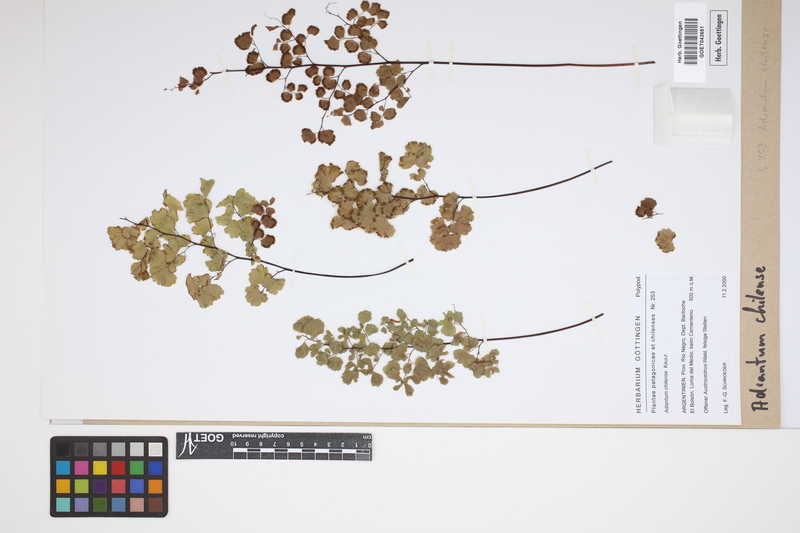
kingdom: Plantae
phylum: Tracheophyta
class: Polypodiopsida
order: Polypodiales
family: Pteridaceae
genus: Adiantum
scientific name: Adiantum chilense
